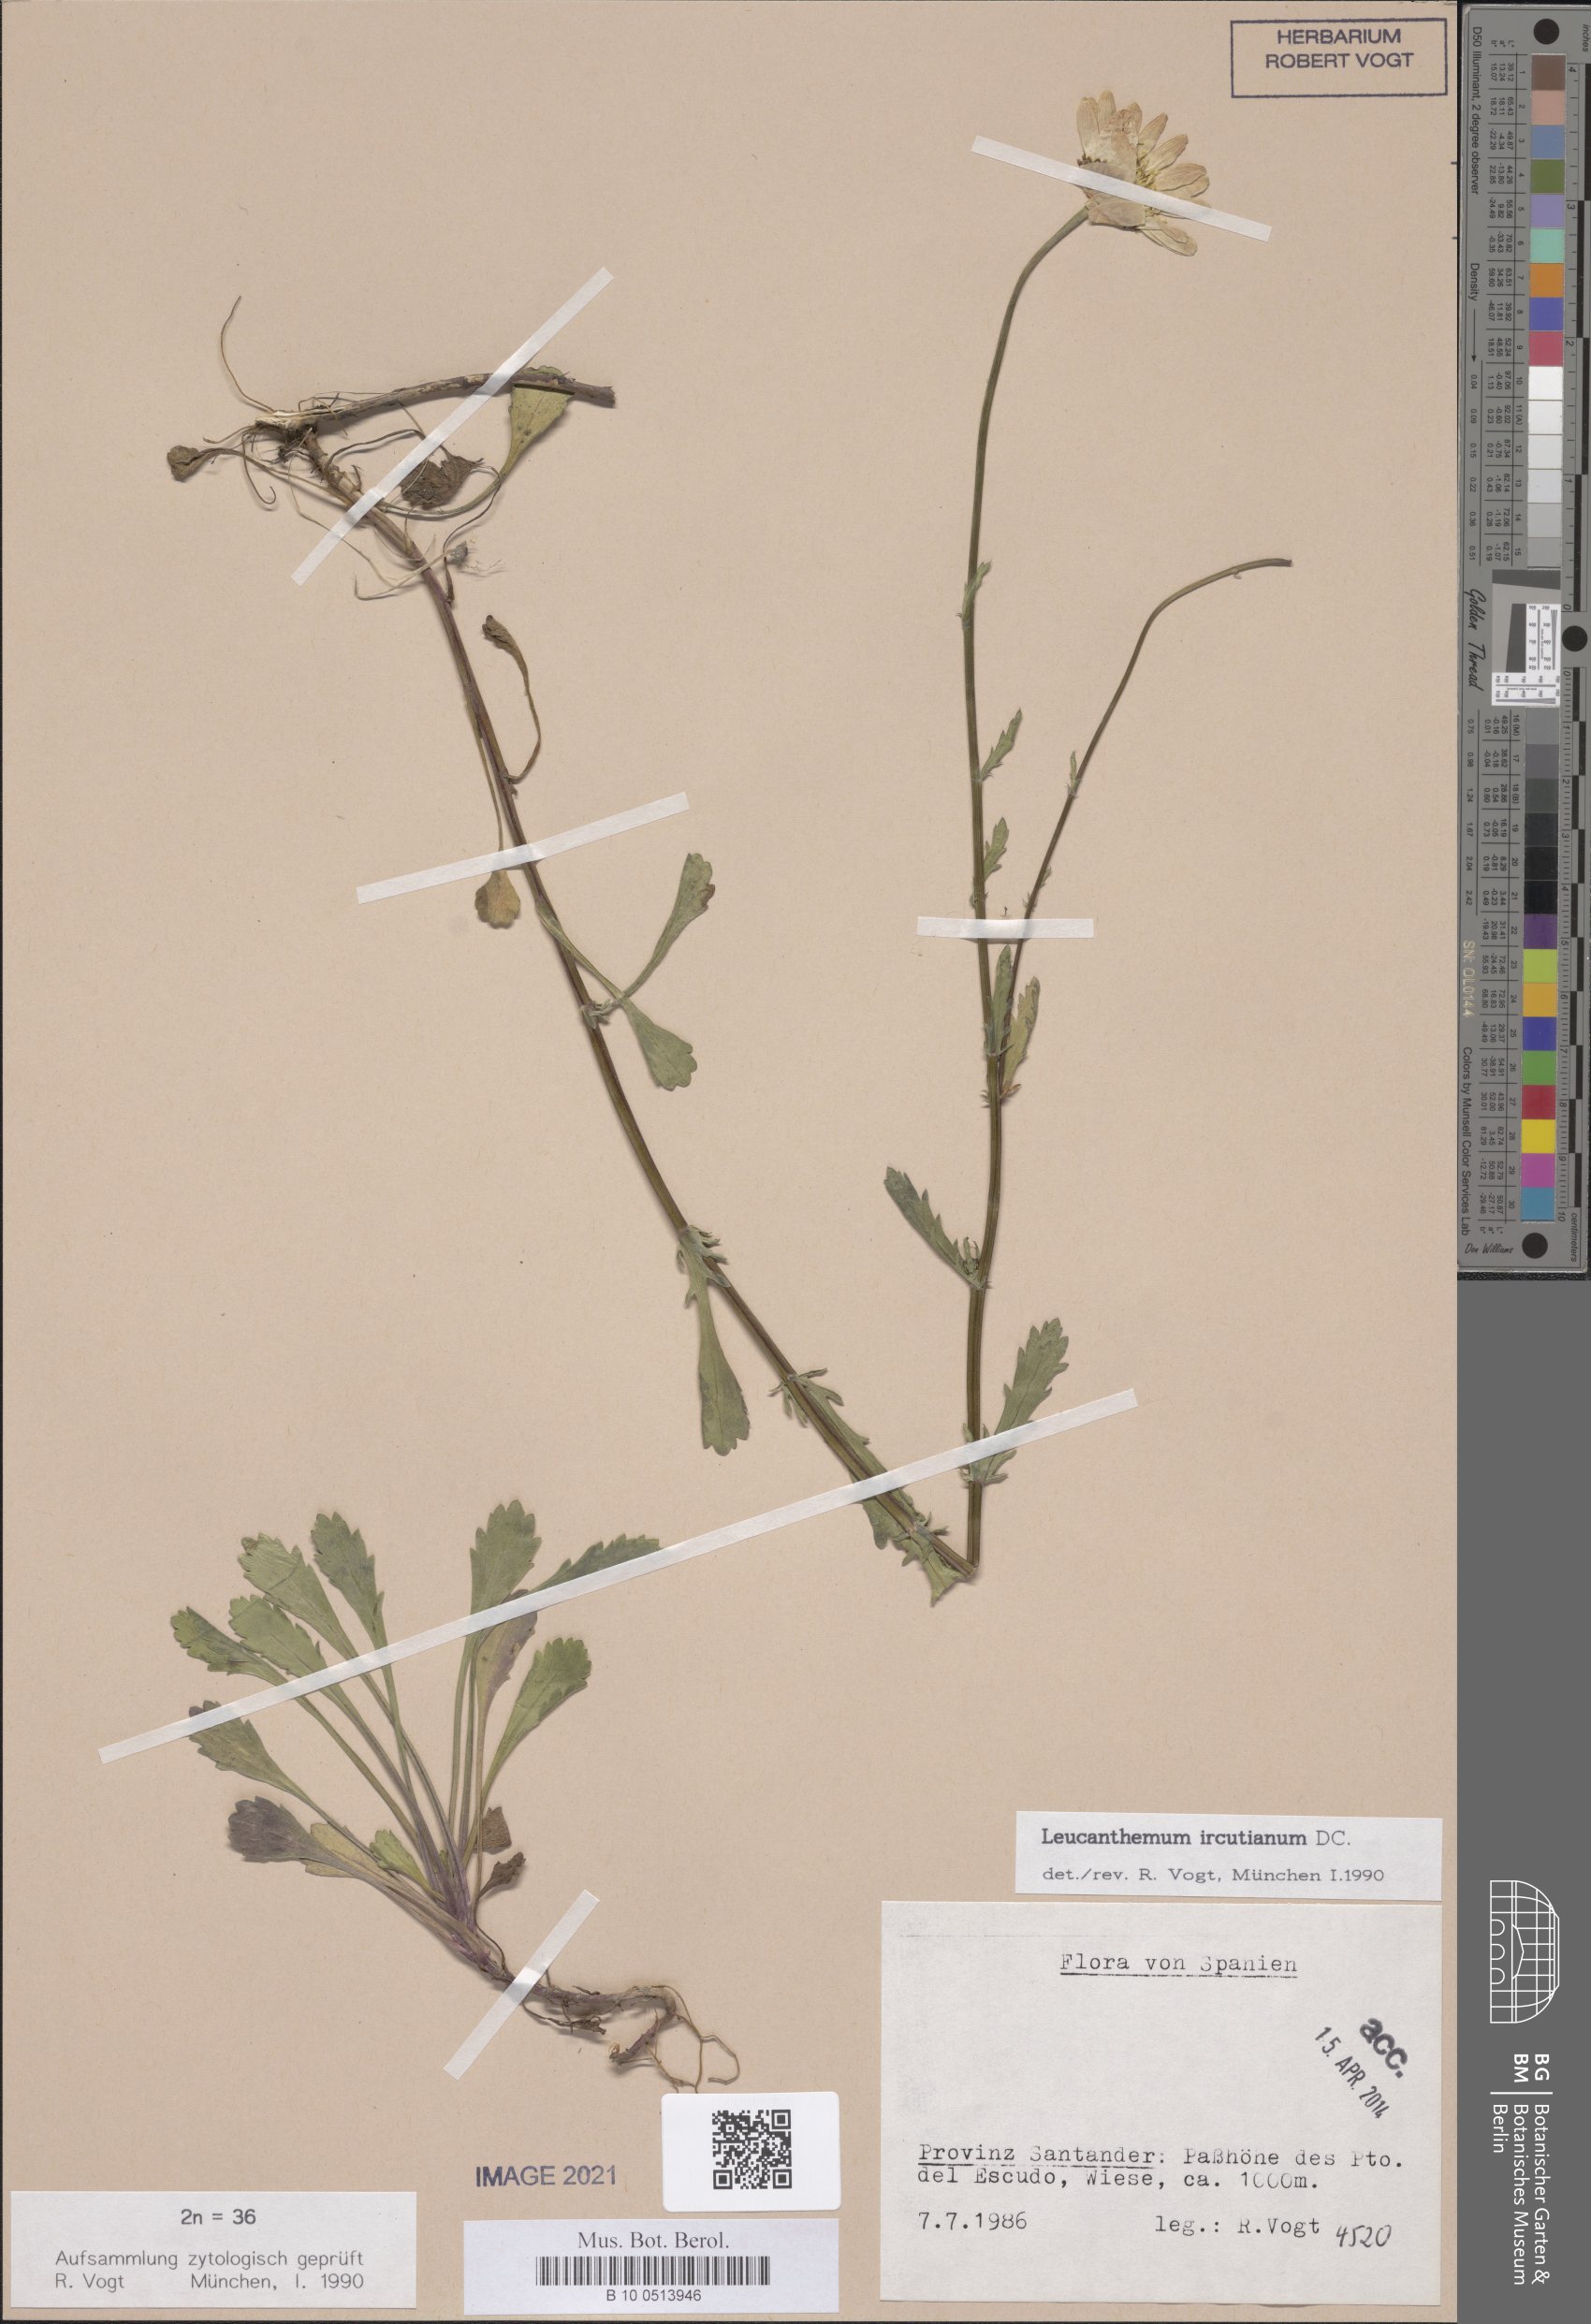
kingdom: Plantae
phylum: Tracheophyta
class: Magnoliopsida
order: Asterales
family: Asteraceae
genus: Leucanthemum
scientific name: Leucanthemum ircutianum
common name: Daisy
